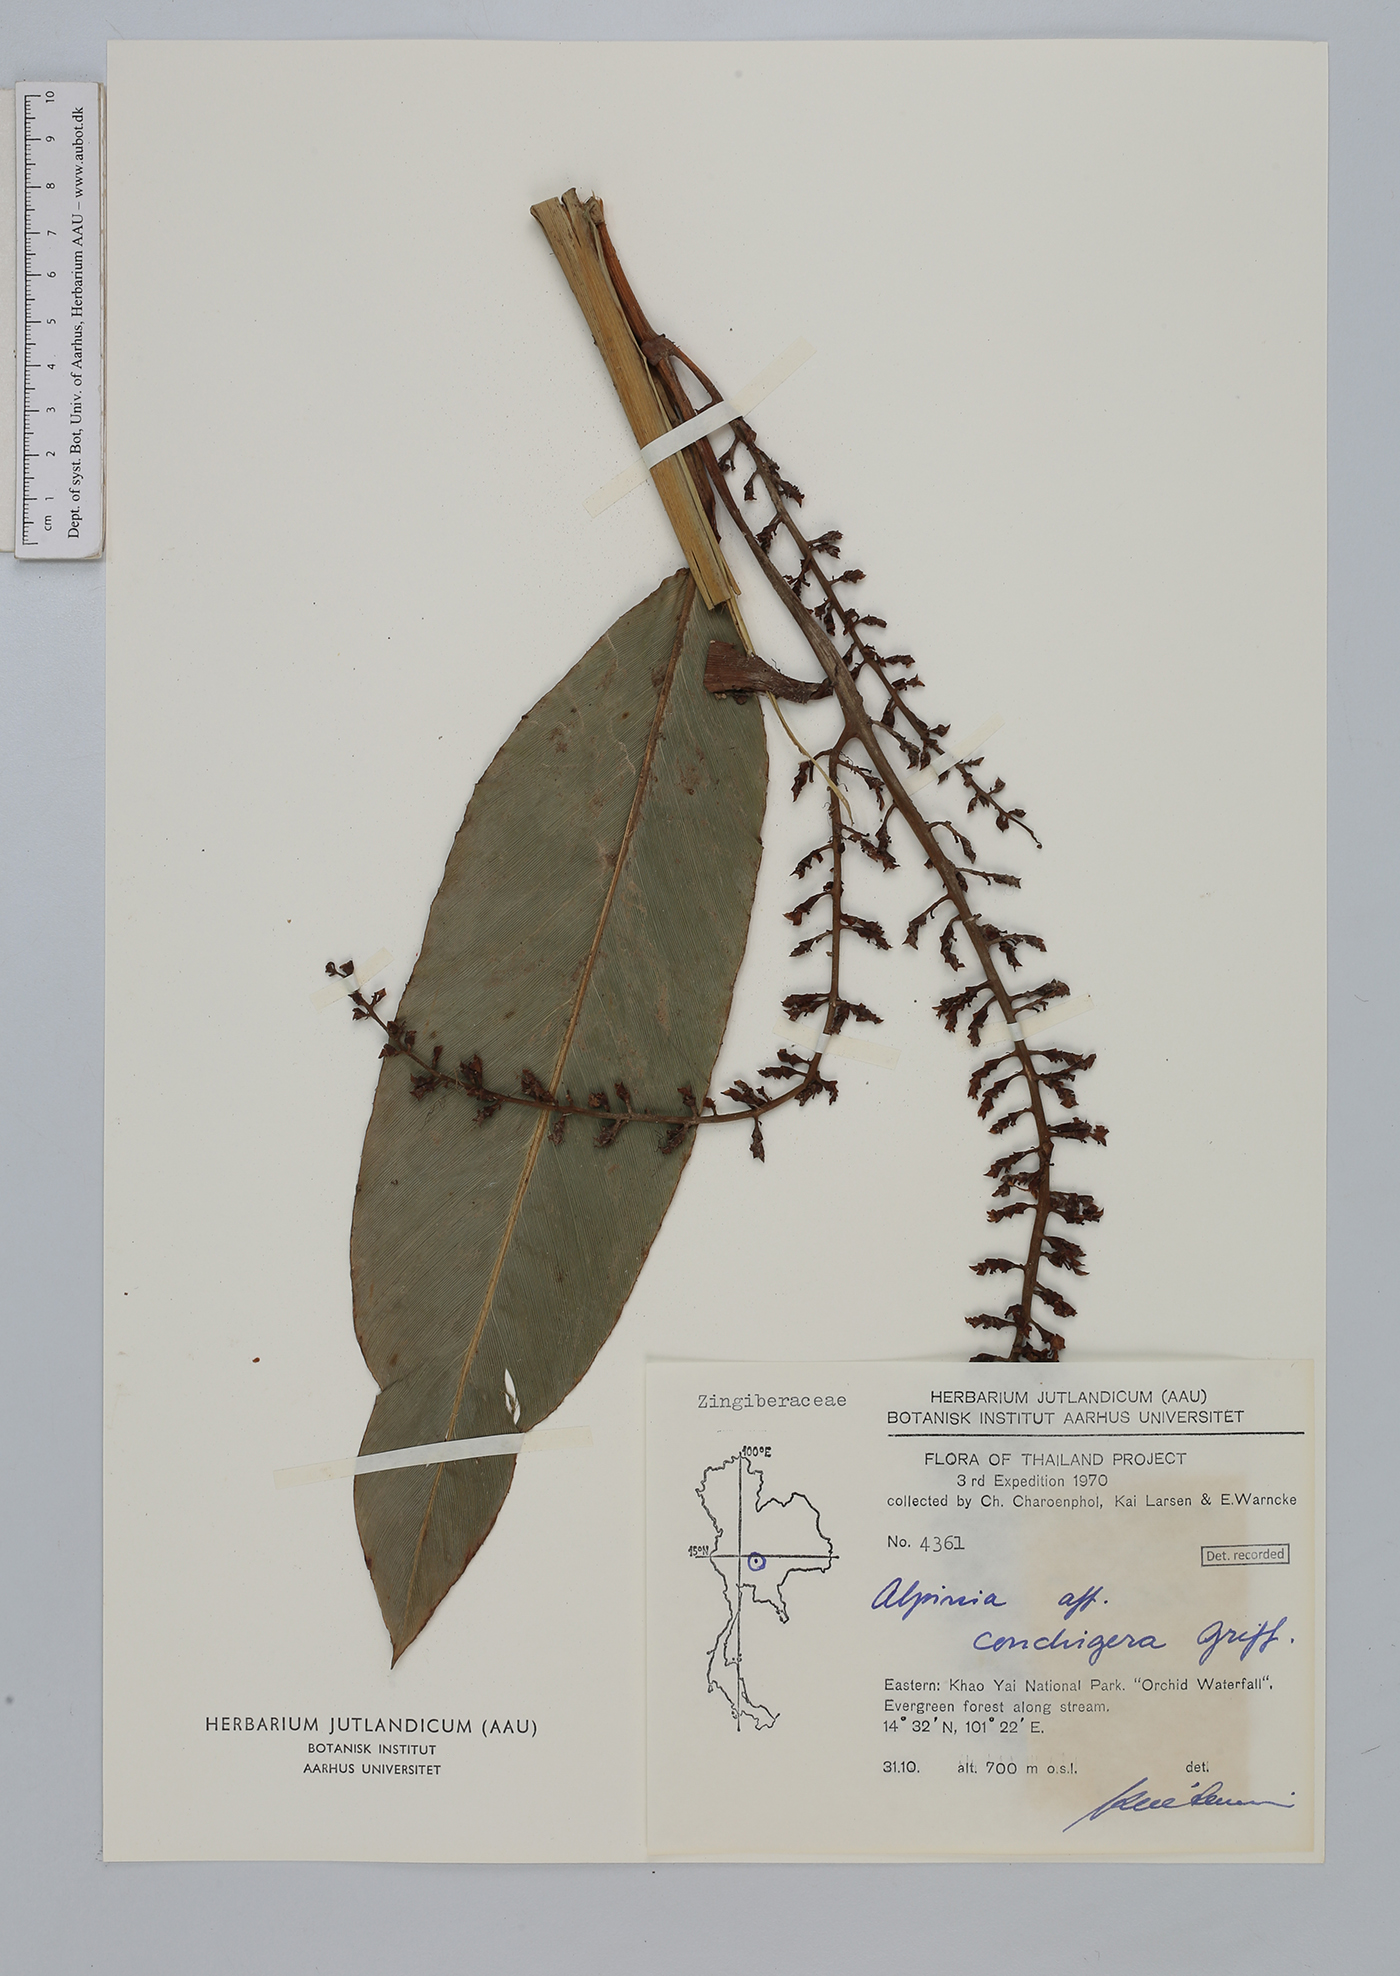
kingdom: Plantae
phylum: Tracheophyta
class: Liliopsida
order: Zingiberales
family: Zingiberaceae
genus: Alpinia
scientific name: Alpinia conchigera
